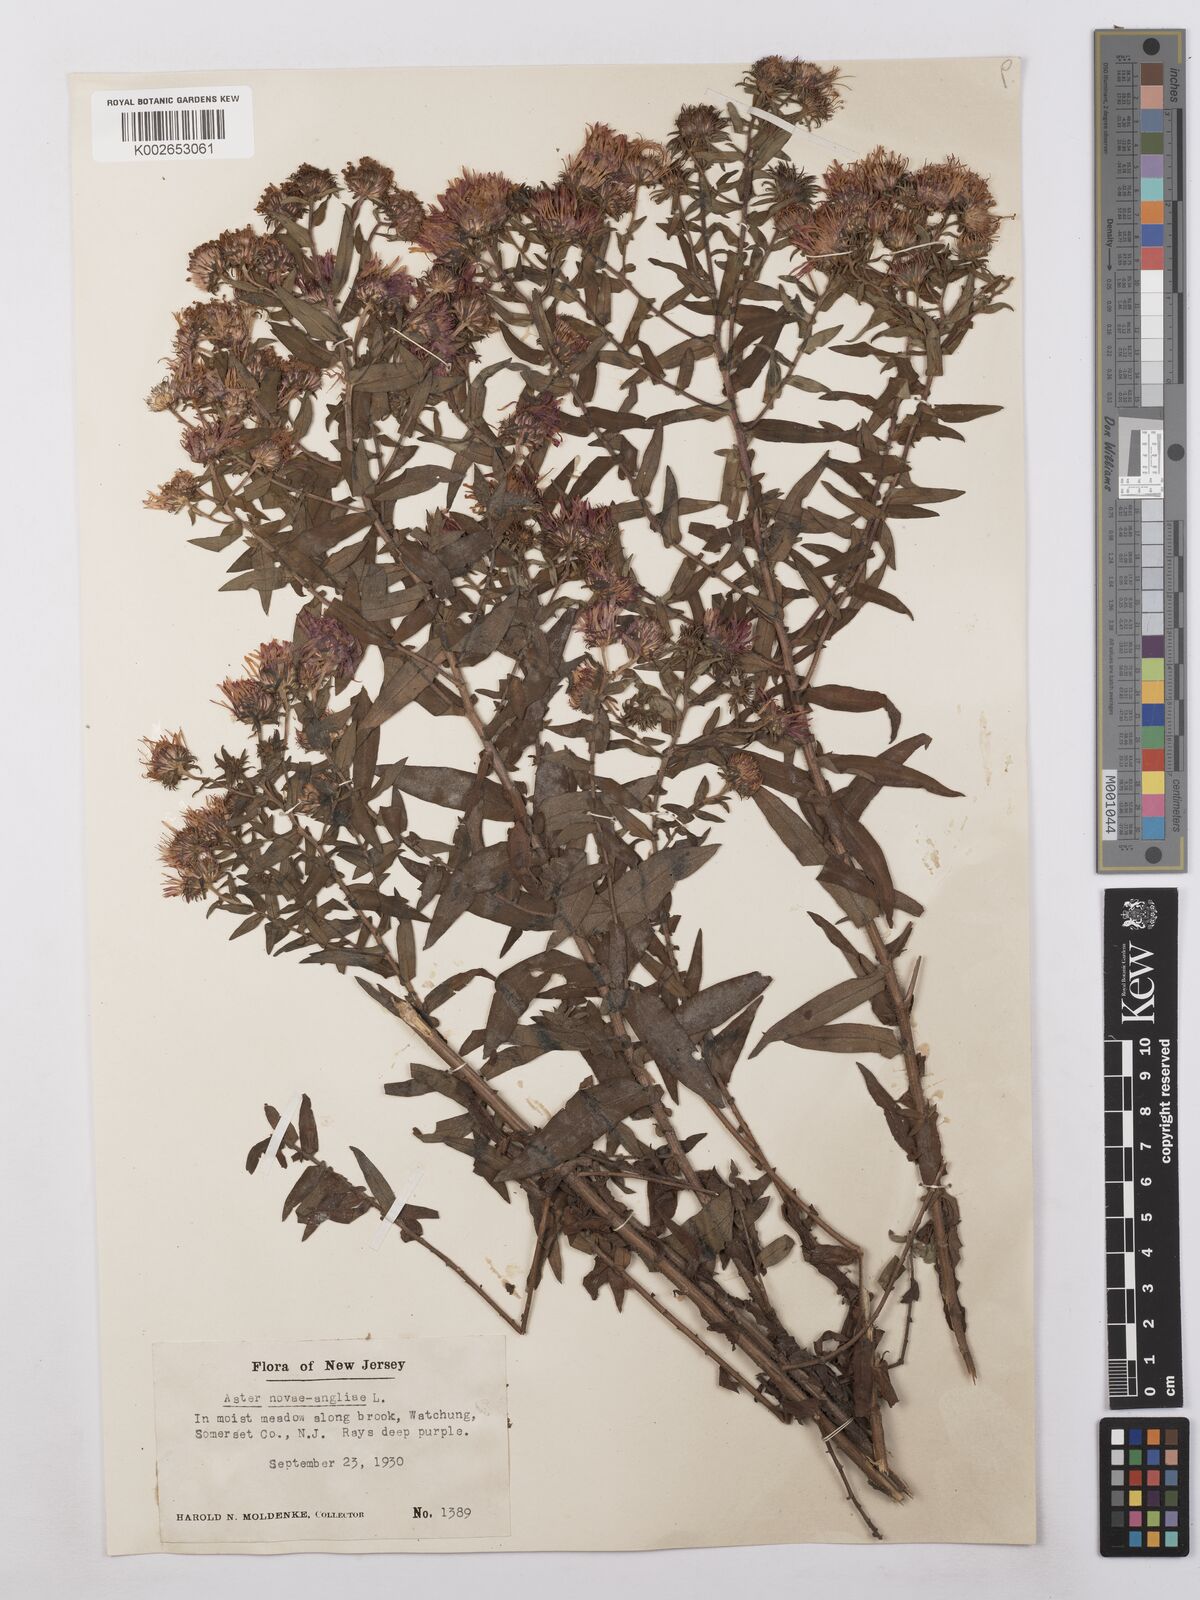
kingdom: Plantae
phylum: Tracheophyta
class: Magnoliopsida
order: Asterales
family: Asteraceae
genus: Symphyotrichum
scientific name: Symphyotrichum novae-angliae
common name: Michaelmas daisy
